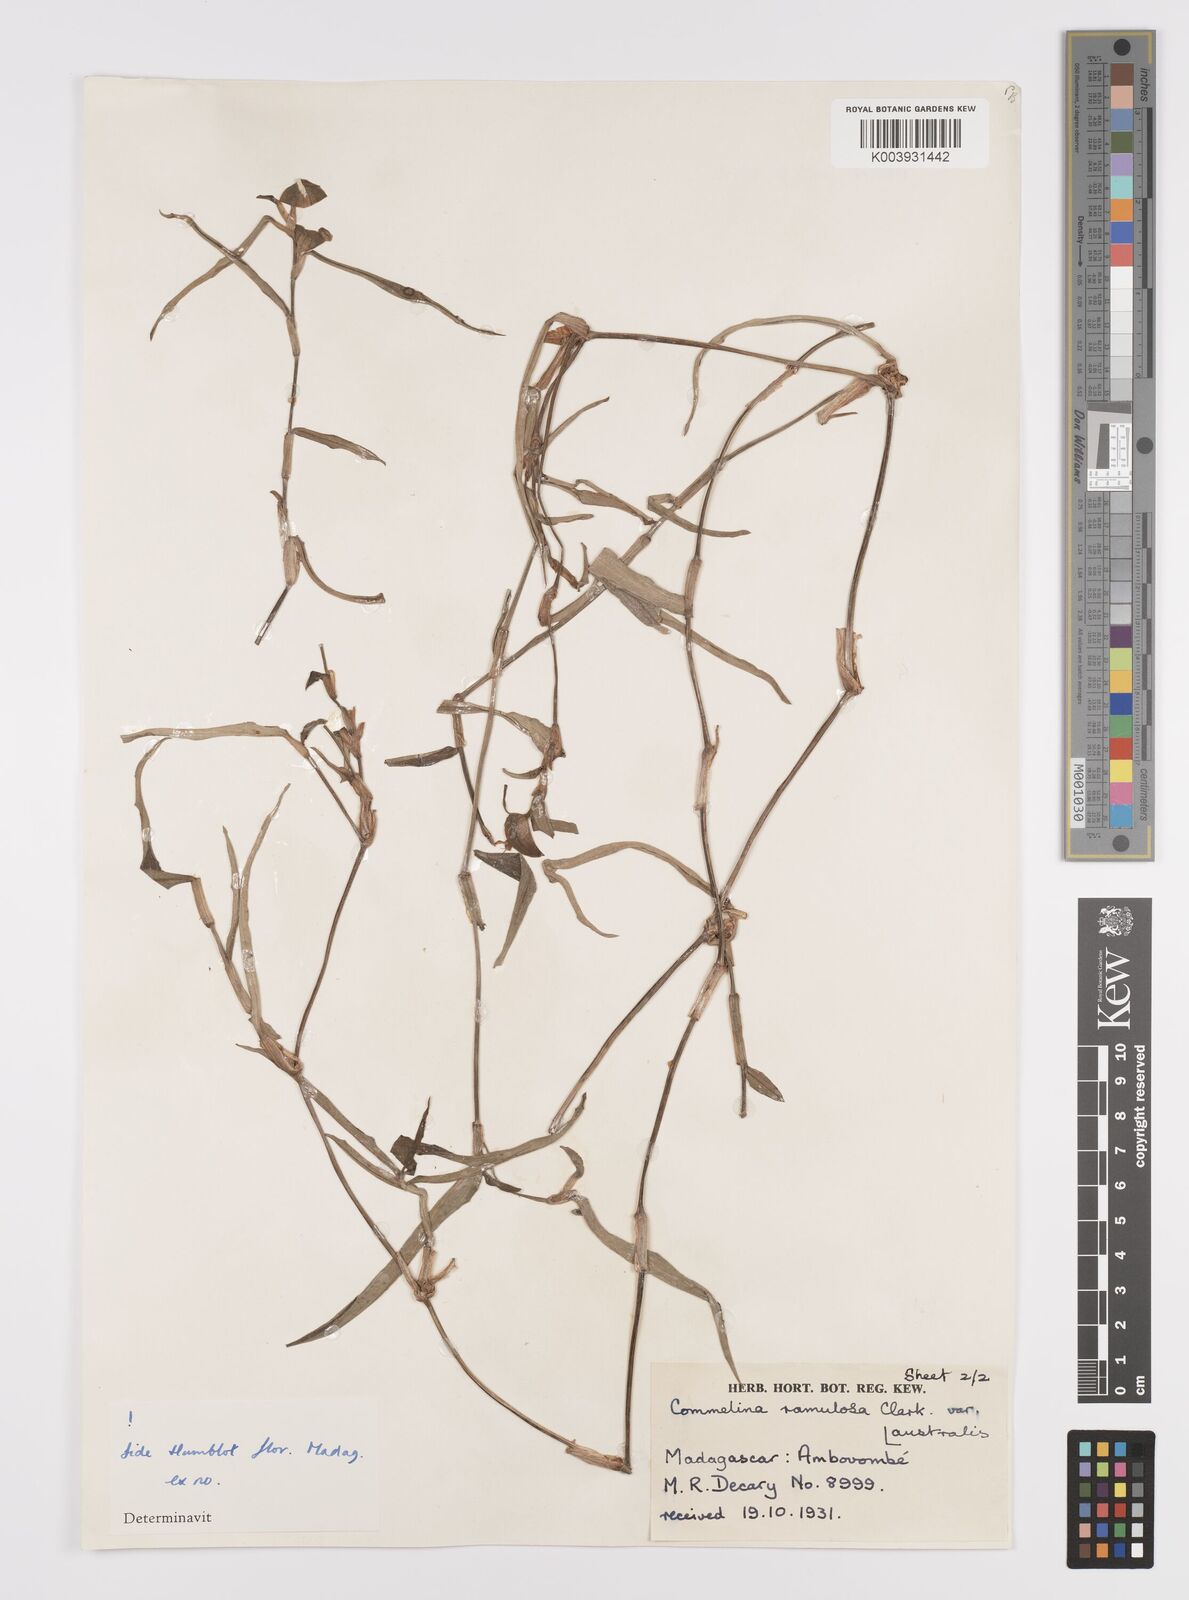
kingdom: Plantae
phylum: Tracheophyta
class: Liliopsida
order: Commelinales
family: Commelinaceae
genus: Commelina
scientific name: Commelina ramulosa
